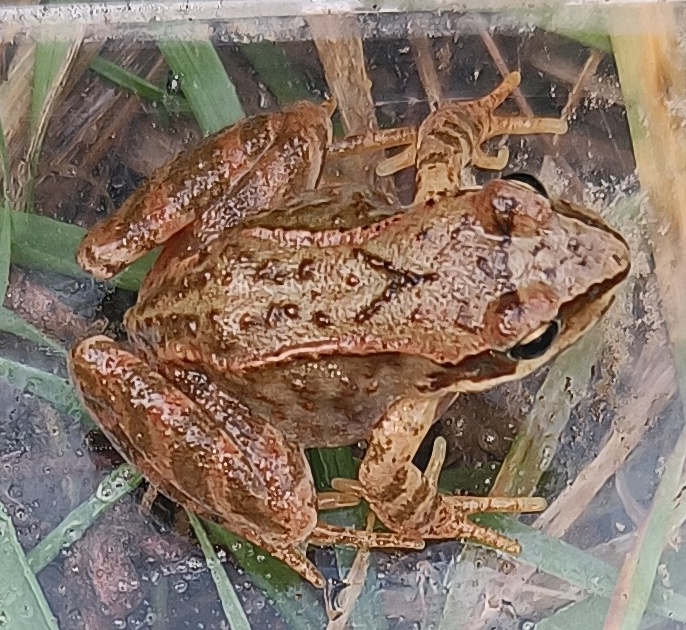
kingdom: Animalia
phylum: Chordata
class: Amphibia
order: Anura
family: Ranidae
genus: Rana
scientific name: Rana temporaria
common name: Butsnudet frø
